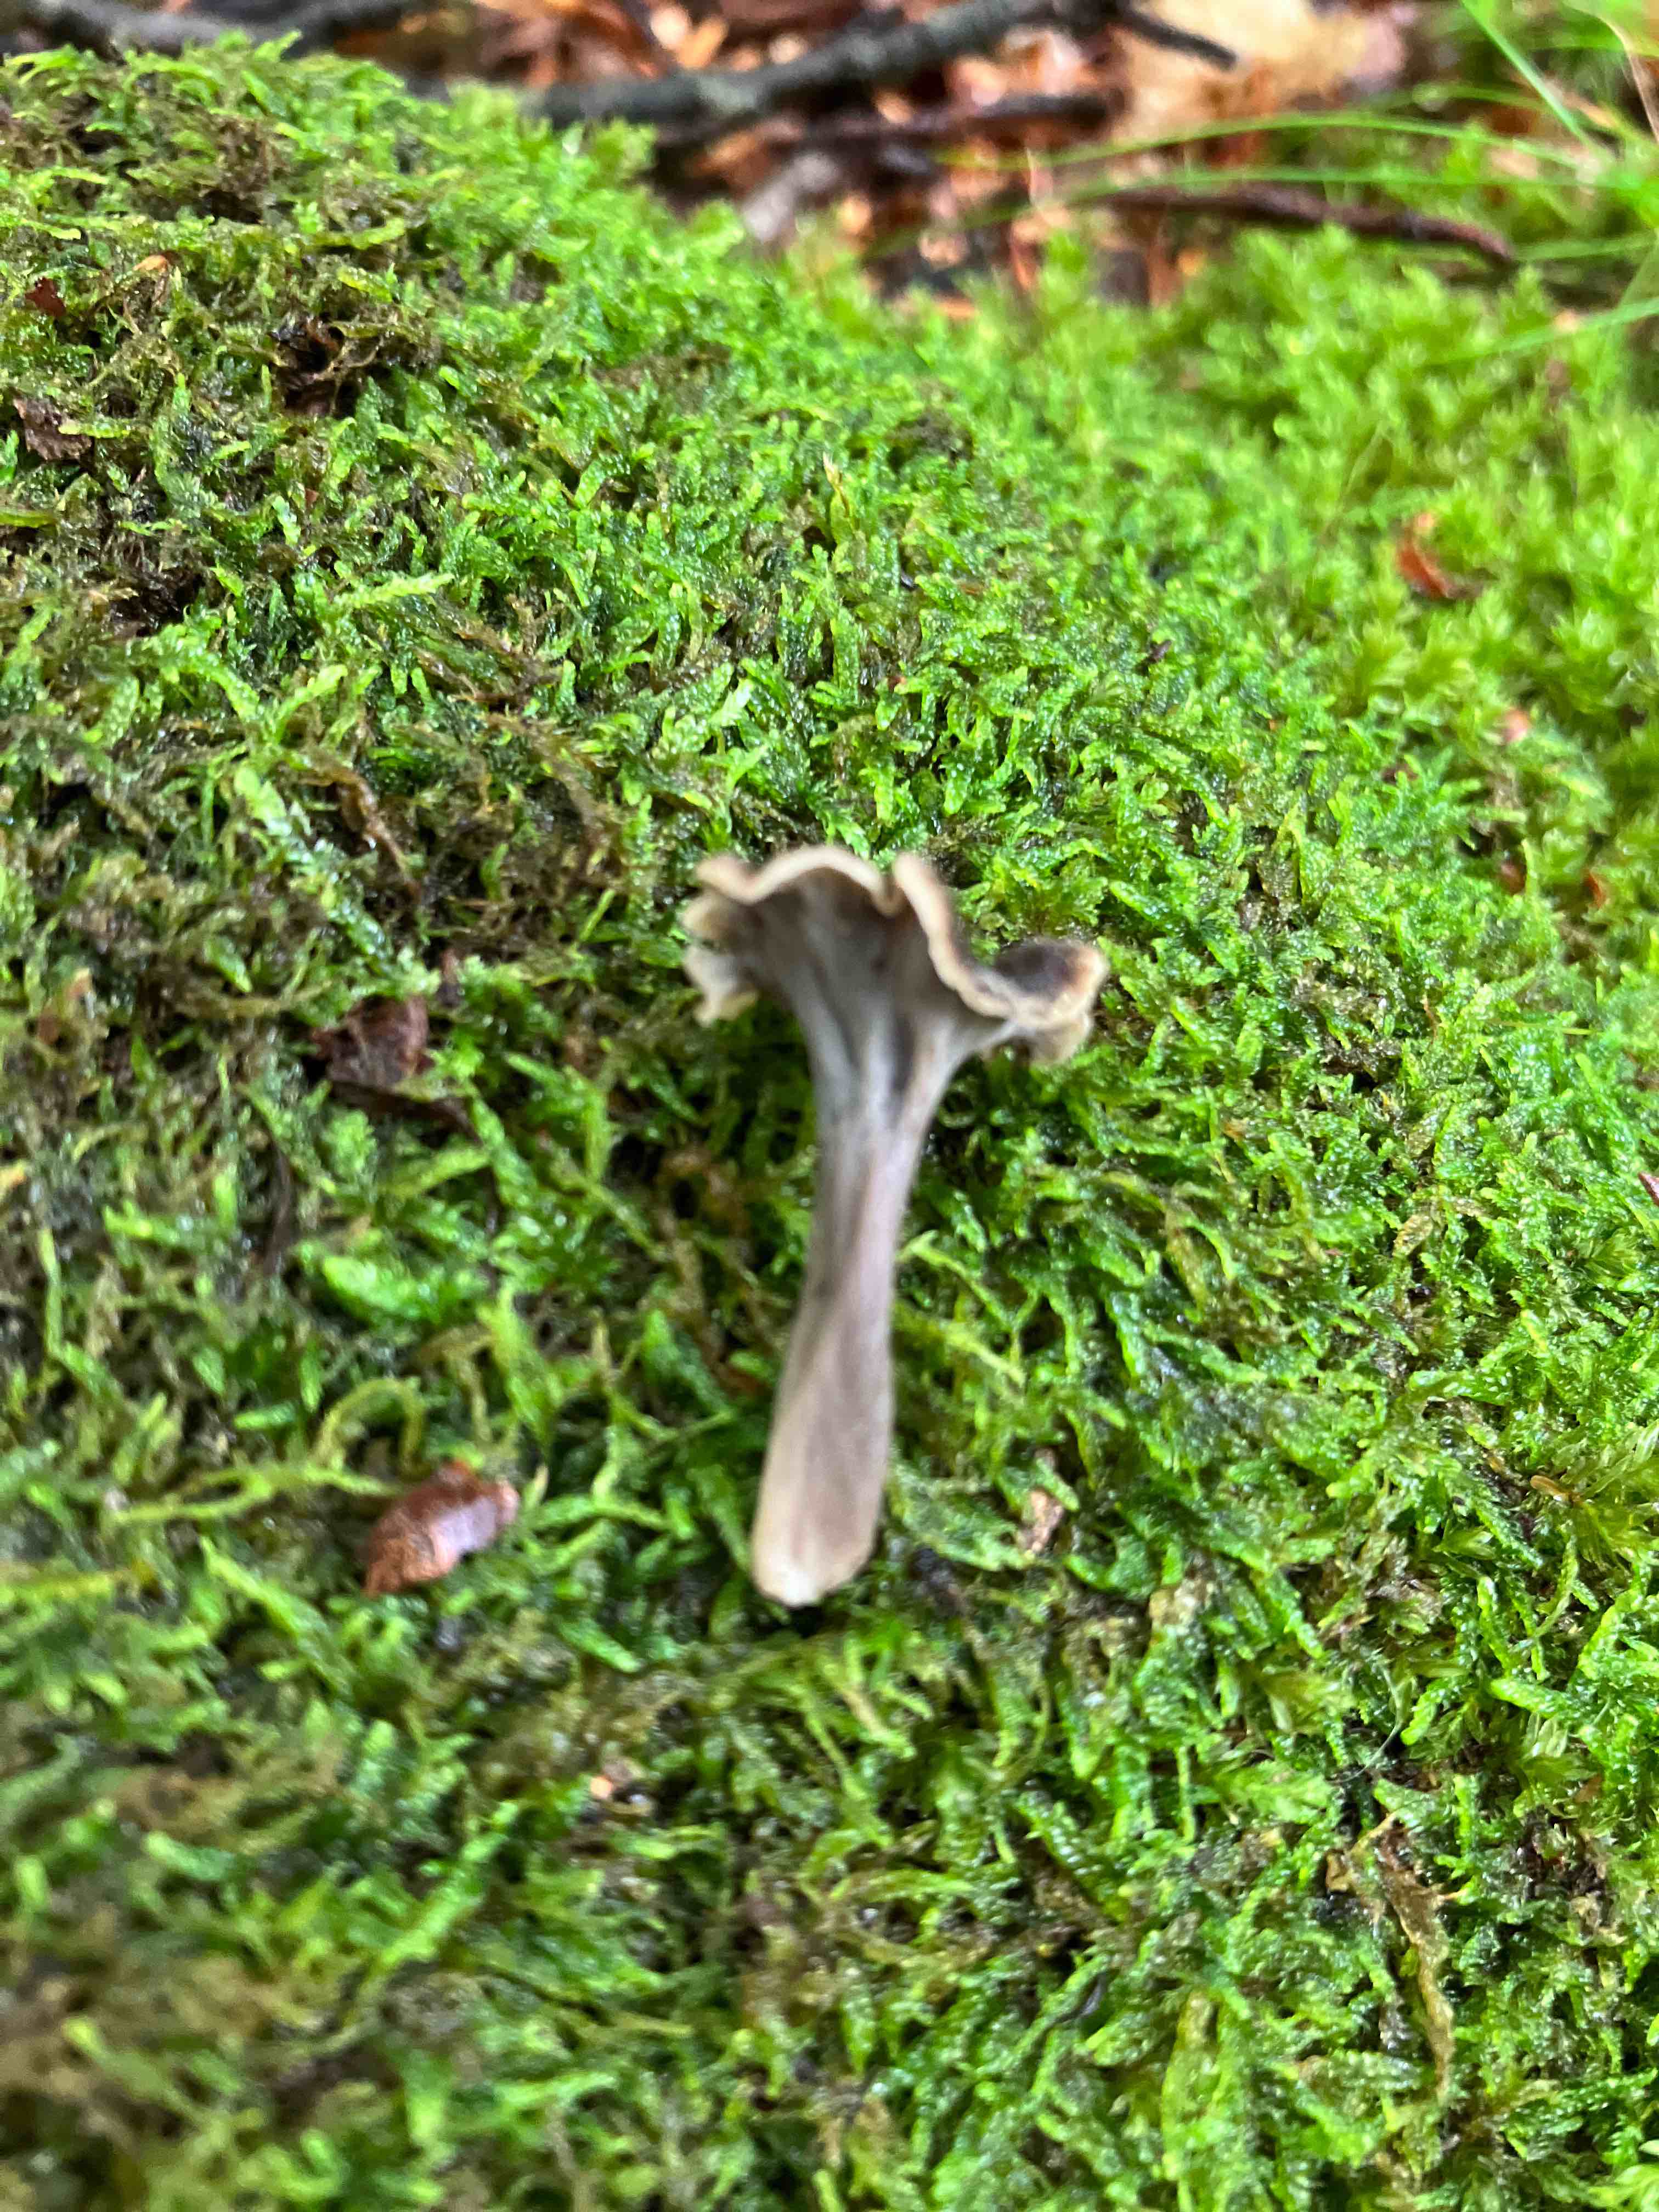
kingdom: Fungi
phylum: Basidiomycota
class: Agaricomycetes
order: Cantharellales
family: Hydnaceae
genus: Cantharellus
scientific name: Cantharellus cinereus
